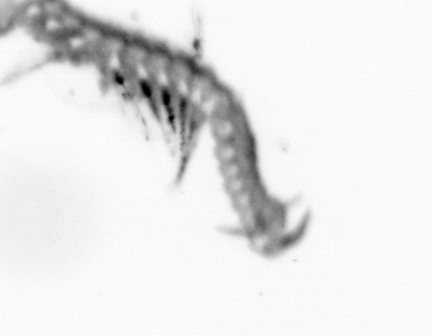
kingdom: Animalia
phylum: Annelida
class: Polychaeta
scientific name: Polychaeta
